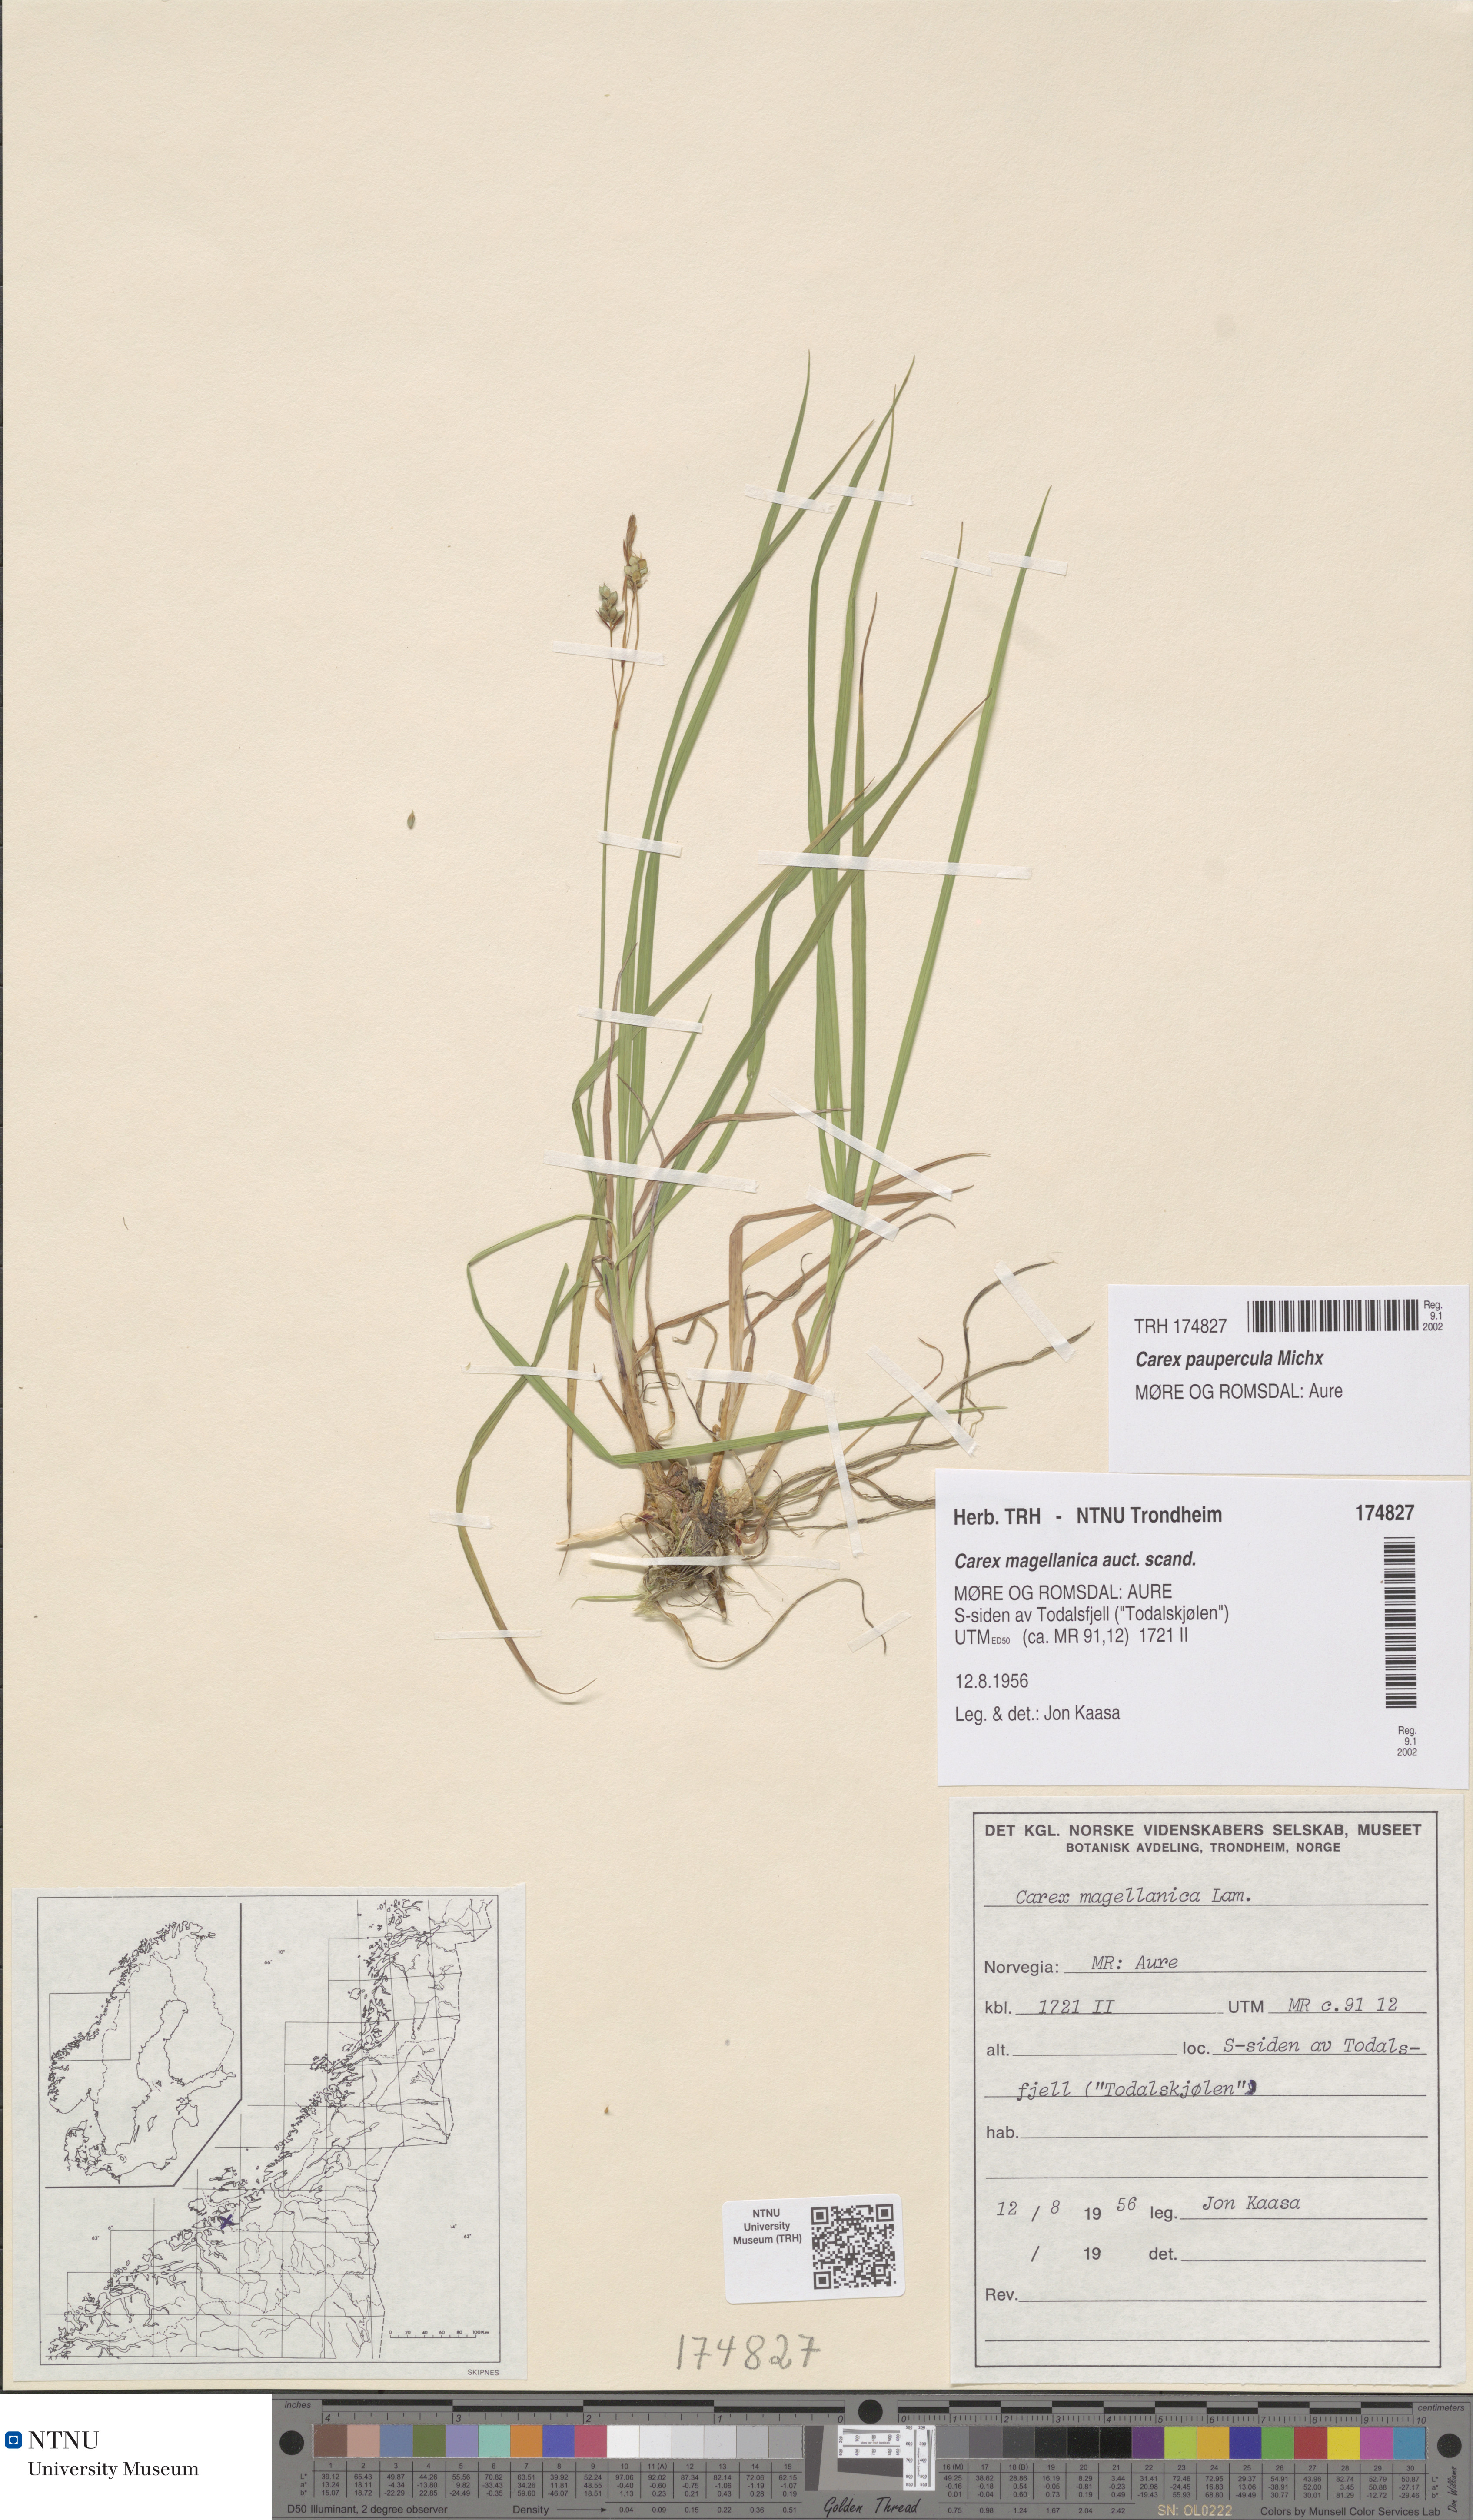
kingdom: Plantae
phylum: Tracheophyta
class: Liliopsida
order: Poales
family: Cyperaceae
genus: Carex
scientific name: Carex magellanica
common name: Bog sedge
